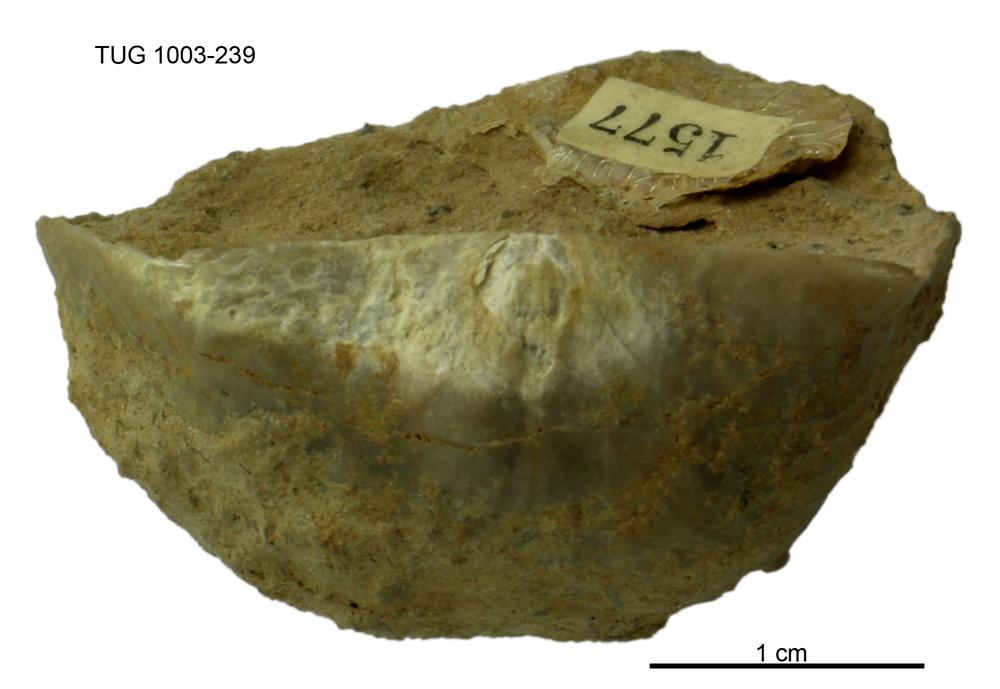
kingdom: Animalia
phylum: Brachiopoda
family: Strophomenidae
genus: Tallinnites
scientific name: Tallinnites Oepikina imbrexoidea
